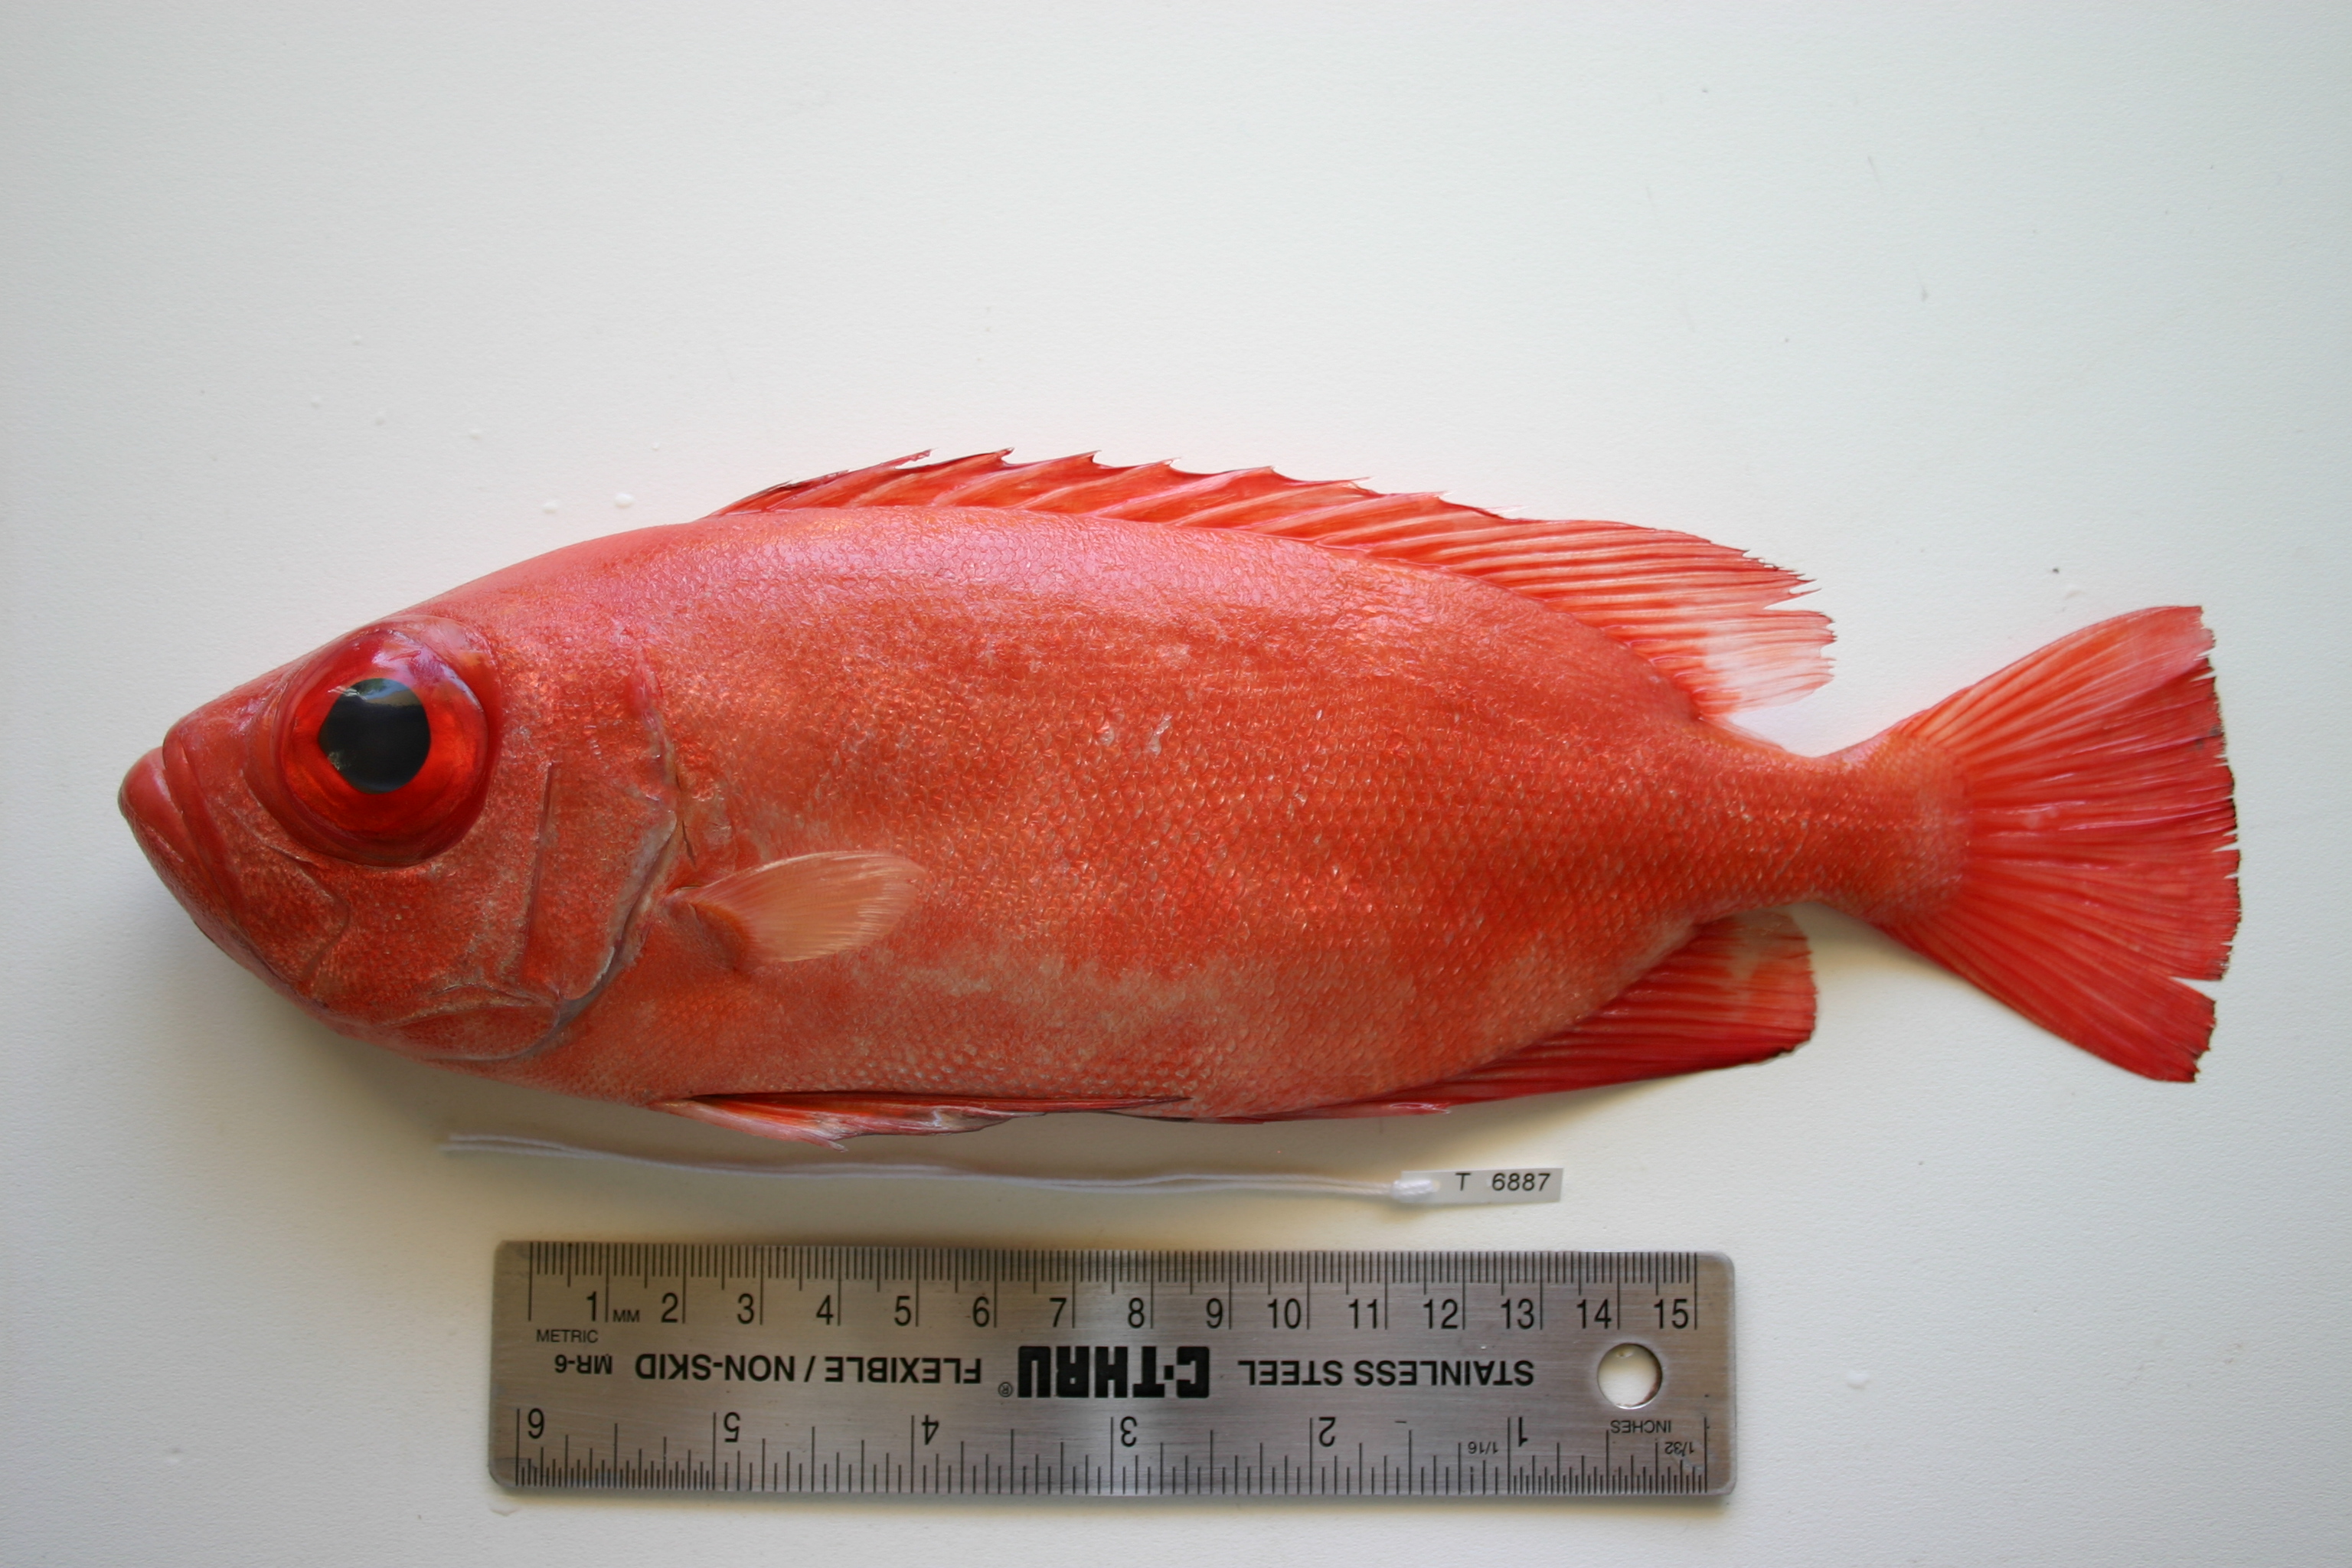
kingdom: Animalia
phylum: Chordata
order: Perciformes
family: Priacanthidae
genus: Priacanthus
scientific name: Priacanthus blochii
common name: Paeony bulleye
